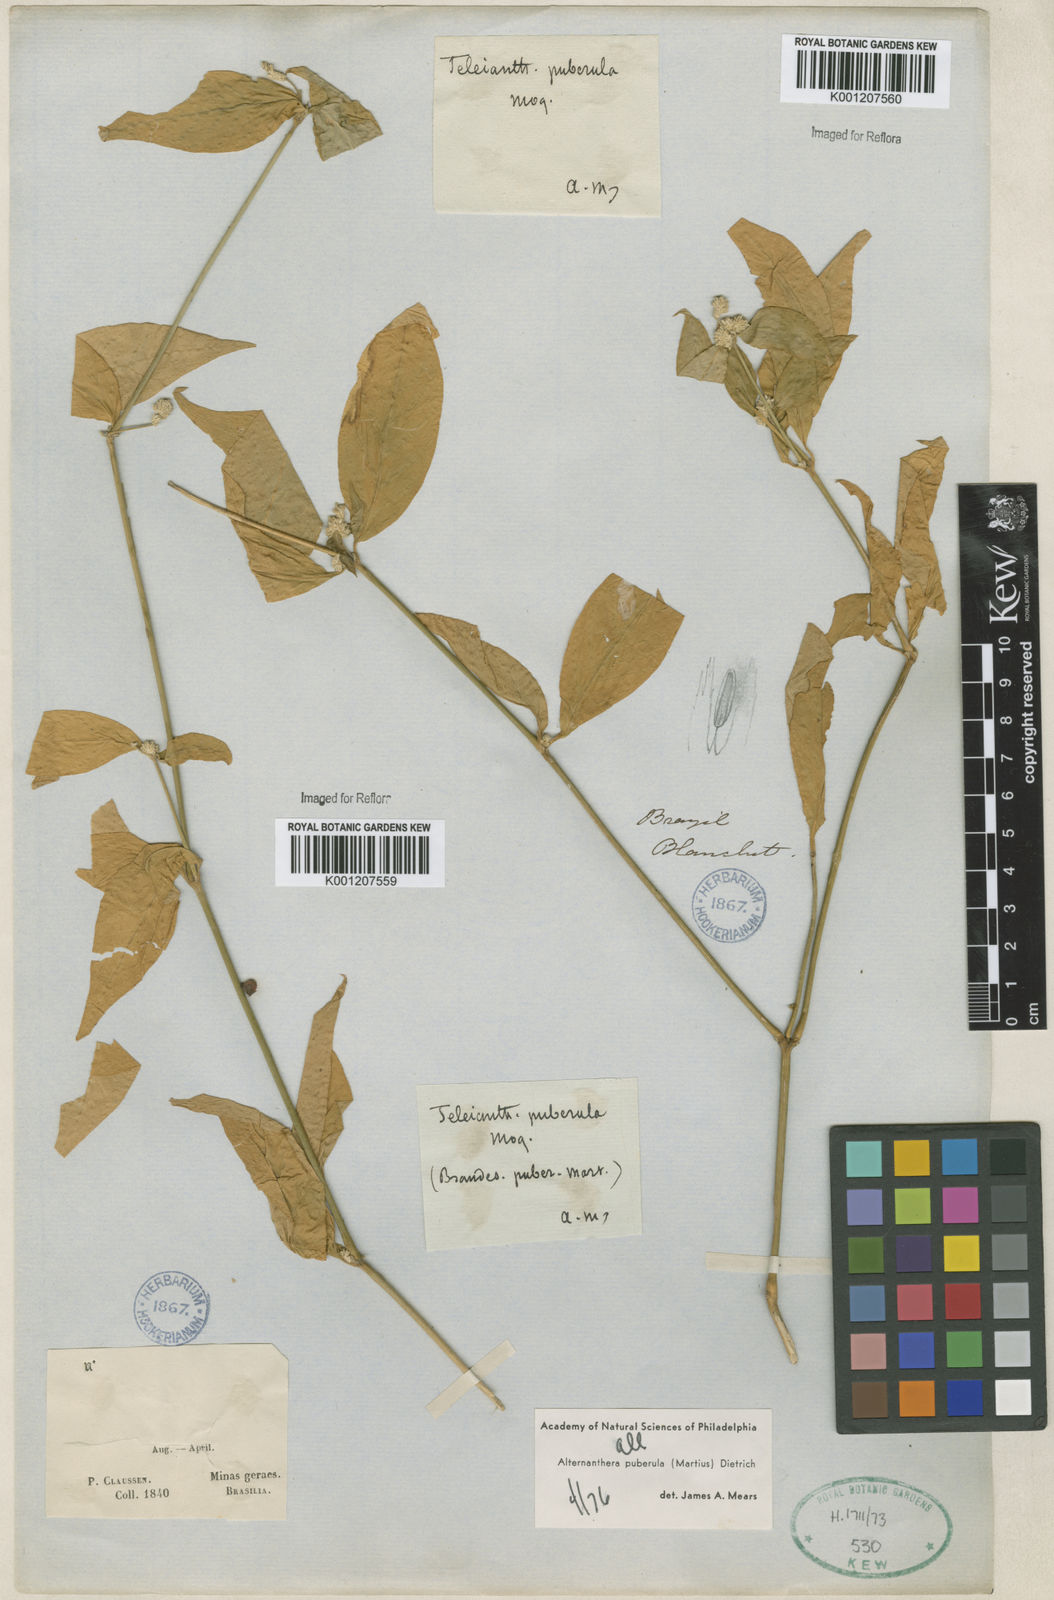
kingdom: Plantae
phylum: Tracheophyta
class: Magnoliopsida
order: Caryophyllales
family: Amaranthaceae
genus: Alternanthera
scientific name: Alternanthera puberula
